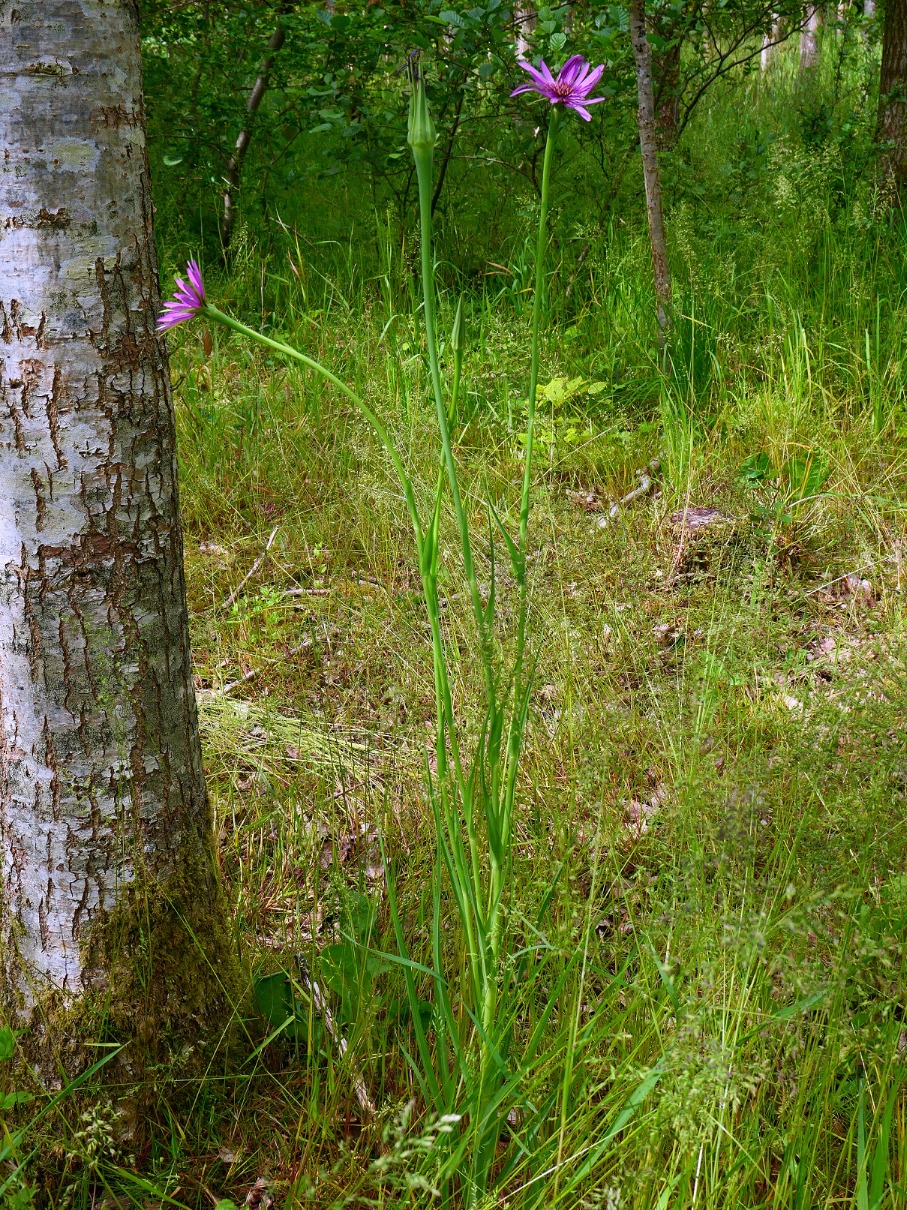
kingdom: Plantae
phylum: Tracheophyta
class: Magnoliopsida
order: Asterales
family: Asteraceae
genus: Tragopogon
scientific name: Tragopogon porrifolius
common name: Havrerod
